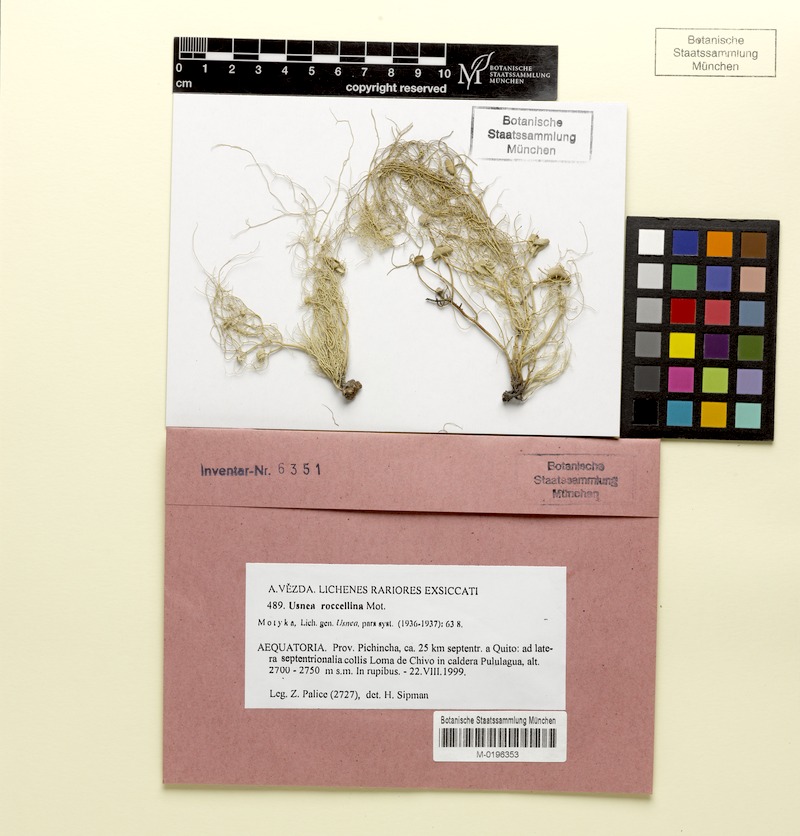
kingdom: Fungi
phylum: Ascomycota
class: Lecanoromycetes
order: Lecanorales
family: Parmeliaceae
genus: Usnea
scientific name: Usnea roccellina
